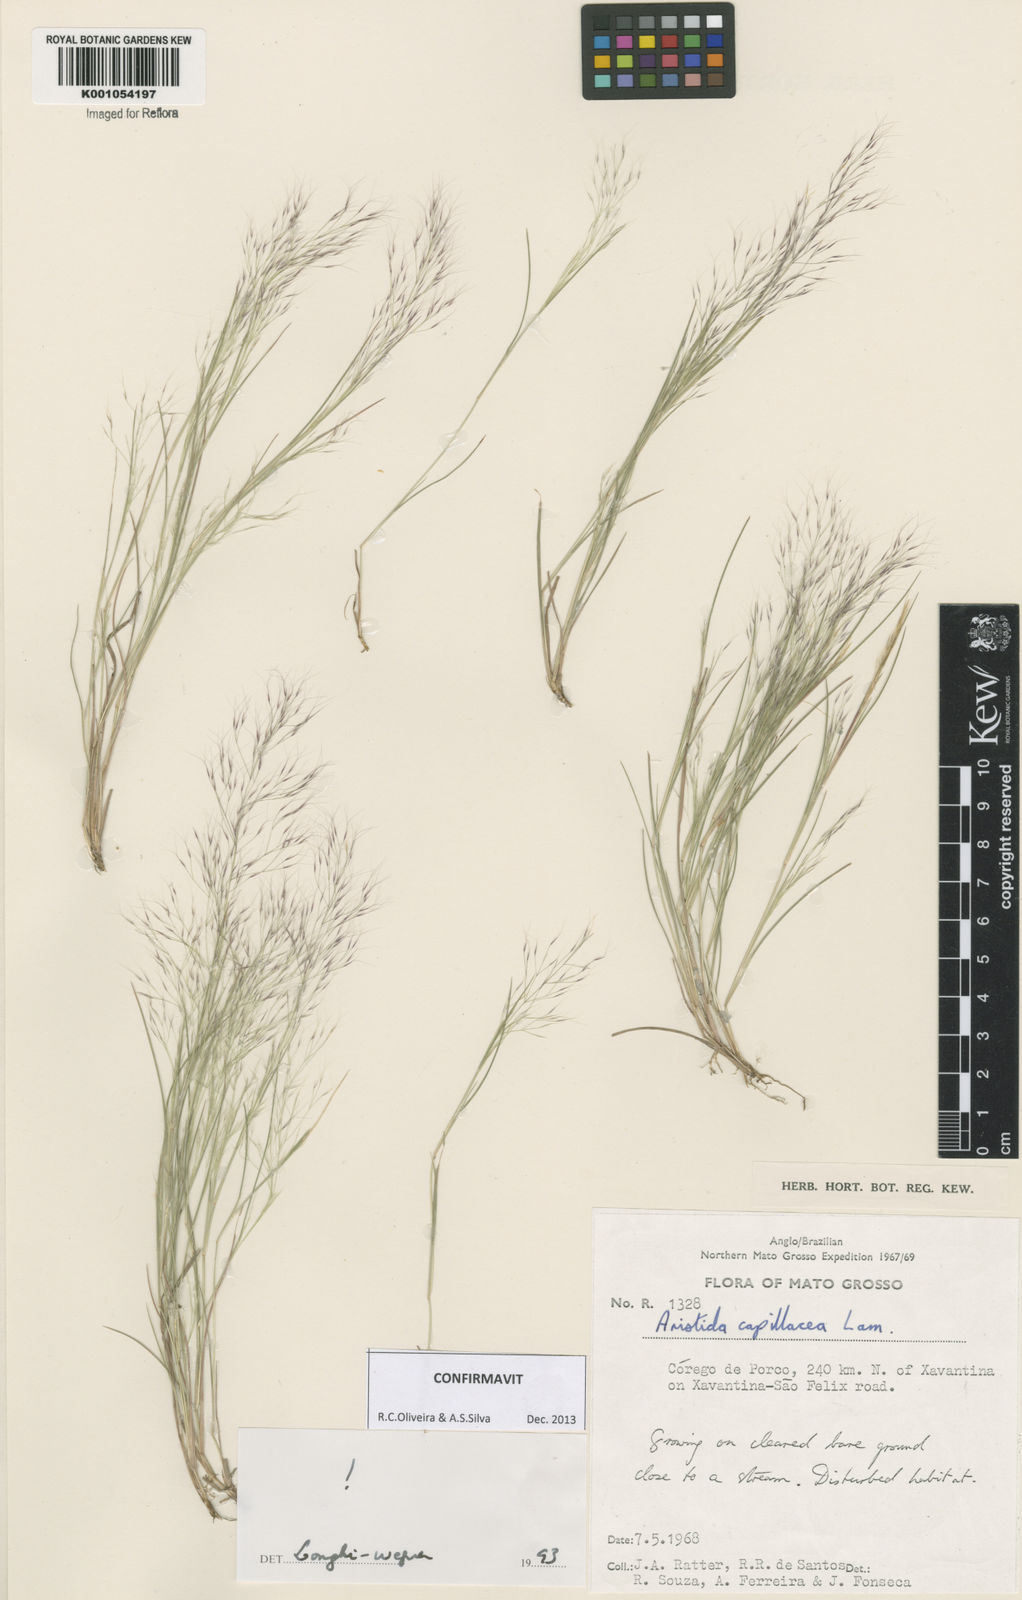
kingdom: Plantae
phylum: Tracheophyta
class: Liliopsida
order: Poales
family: Poaceae
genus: Aristida
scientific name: Aristida capillacea
